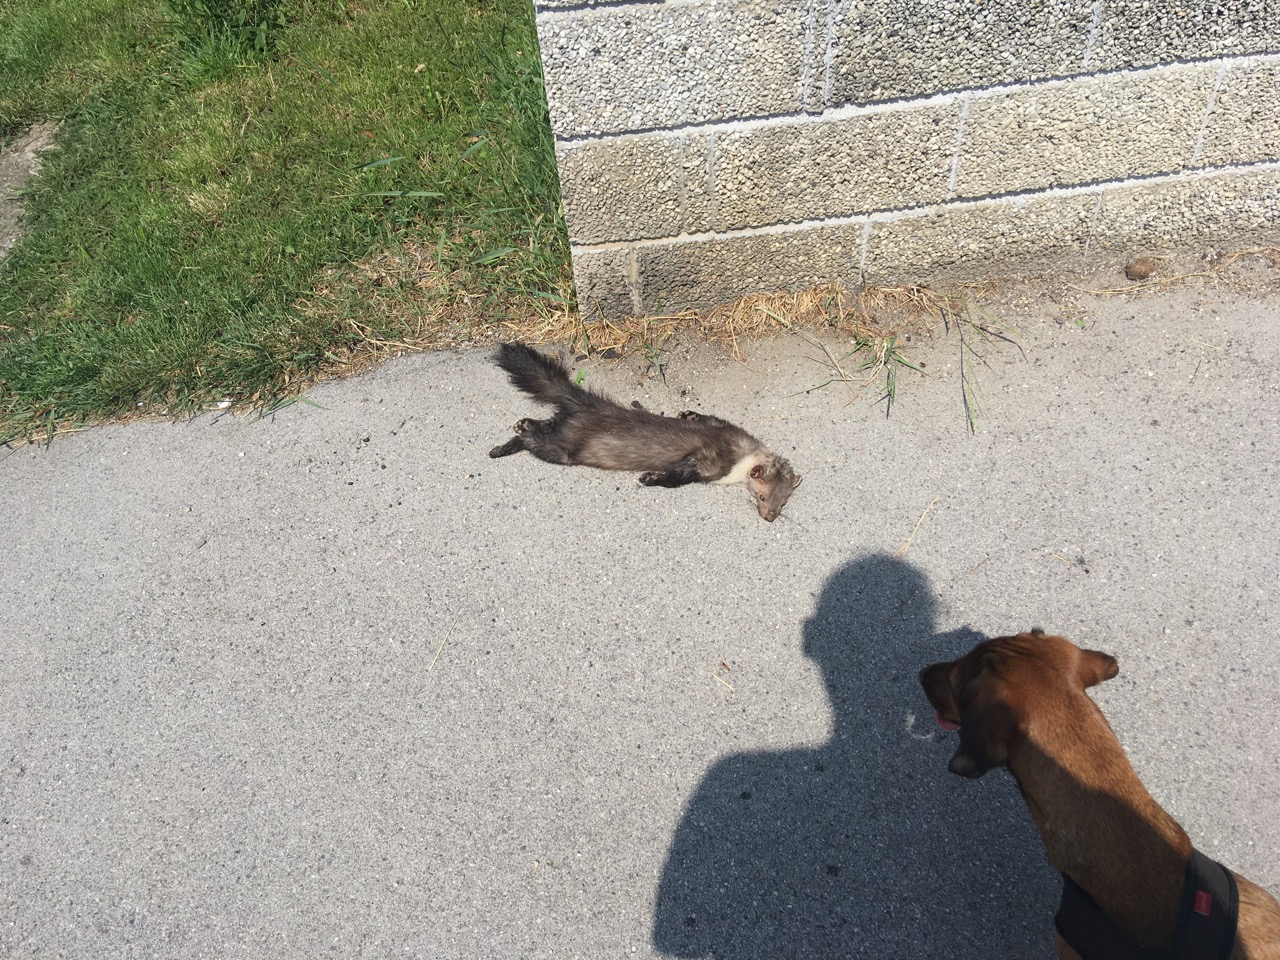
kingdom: Animalia
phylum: Chordata
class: Mammalia
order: Carnivora
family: Mustelidae
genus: Martes
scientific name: Martes foina
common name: Beech marten
